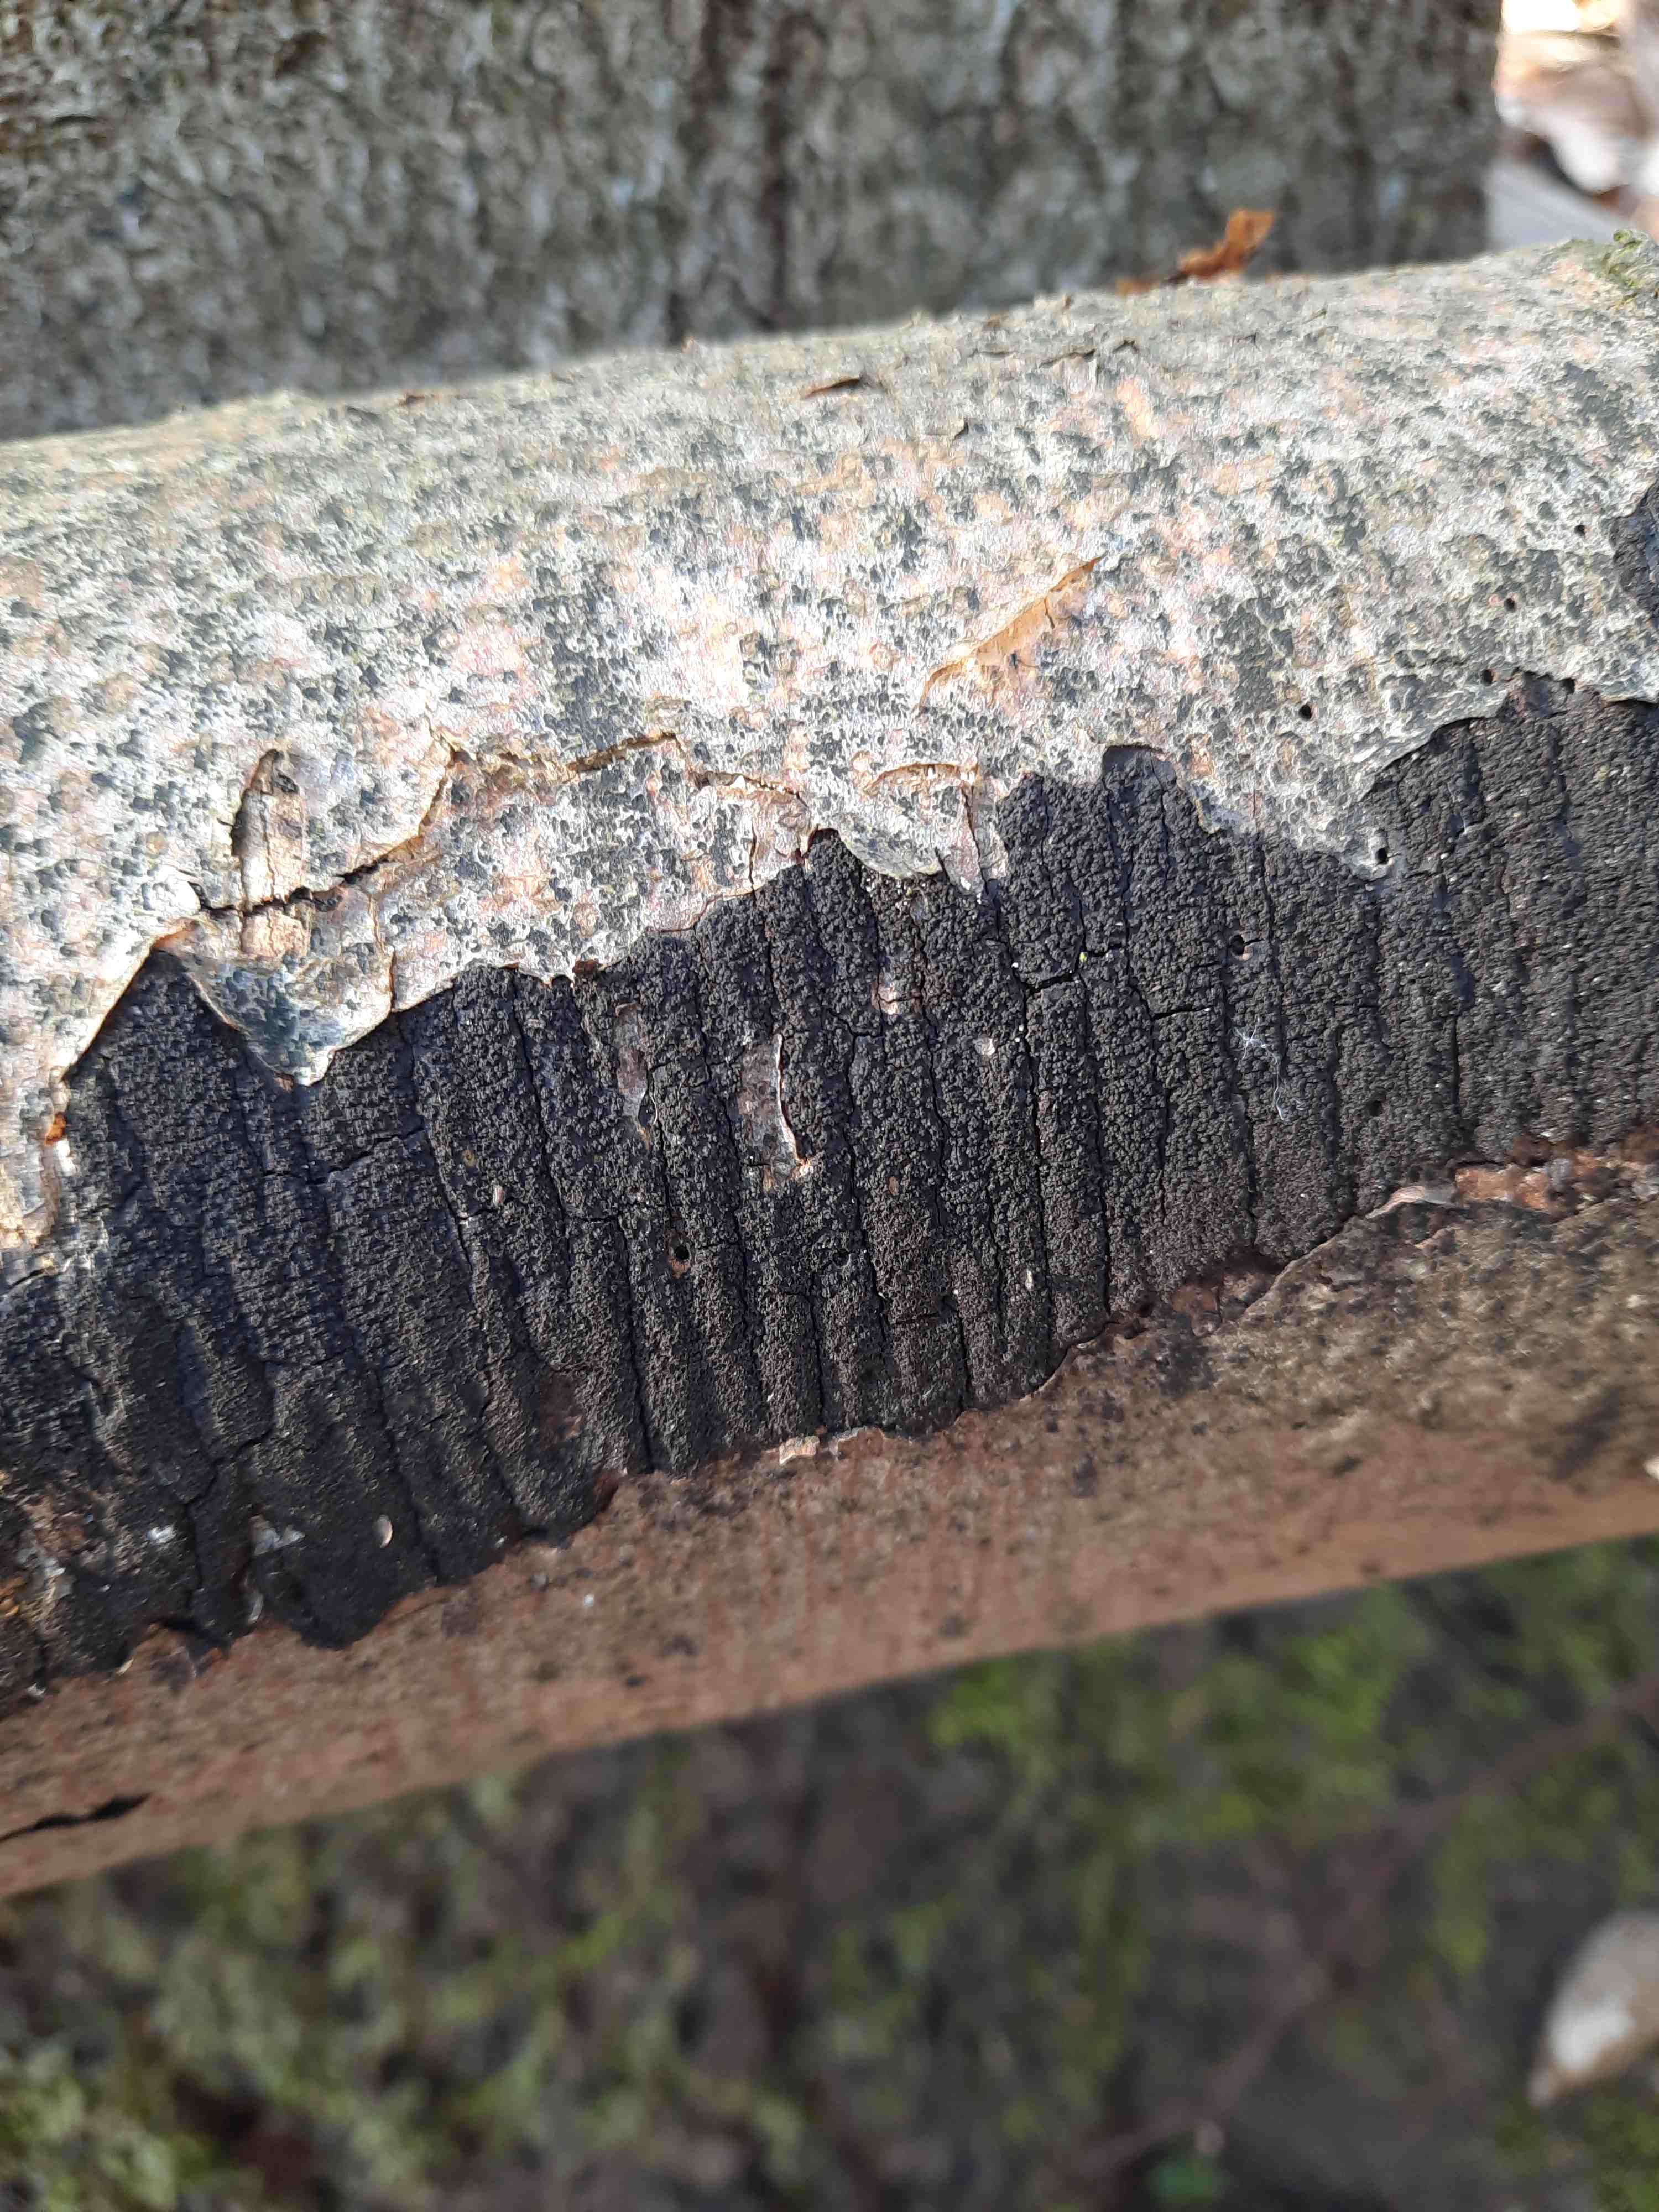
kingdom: Fungi
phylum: Ascomycota
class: Sordariomycetes
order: Xylariales
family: Diatrypaceae
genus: Eutypa
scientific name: Eutypa spinosa
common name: grov kulskorpe
